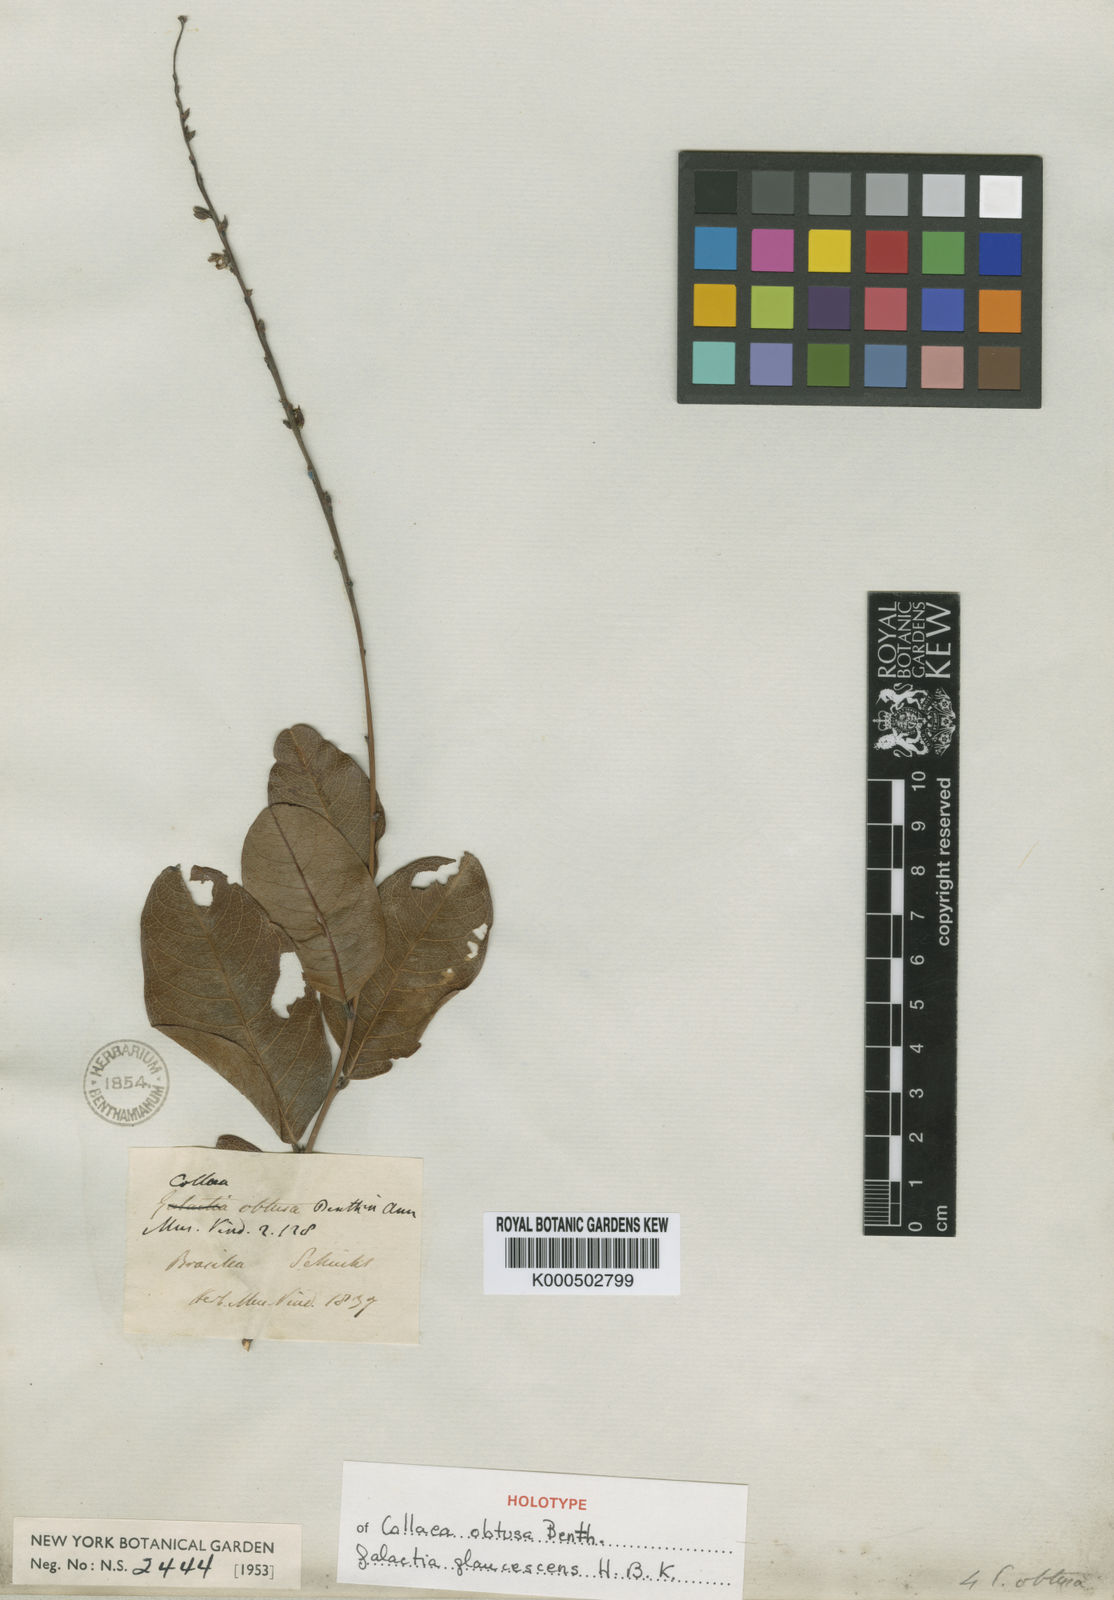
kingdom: Plantae
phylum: Tracheophyta
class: Magnoliopsida
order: Fabales
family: Fabaceae
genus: Galactia
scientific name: Galactia
